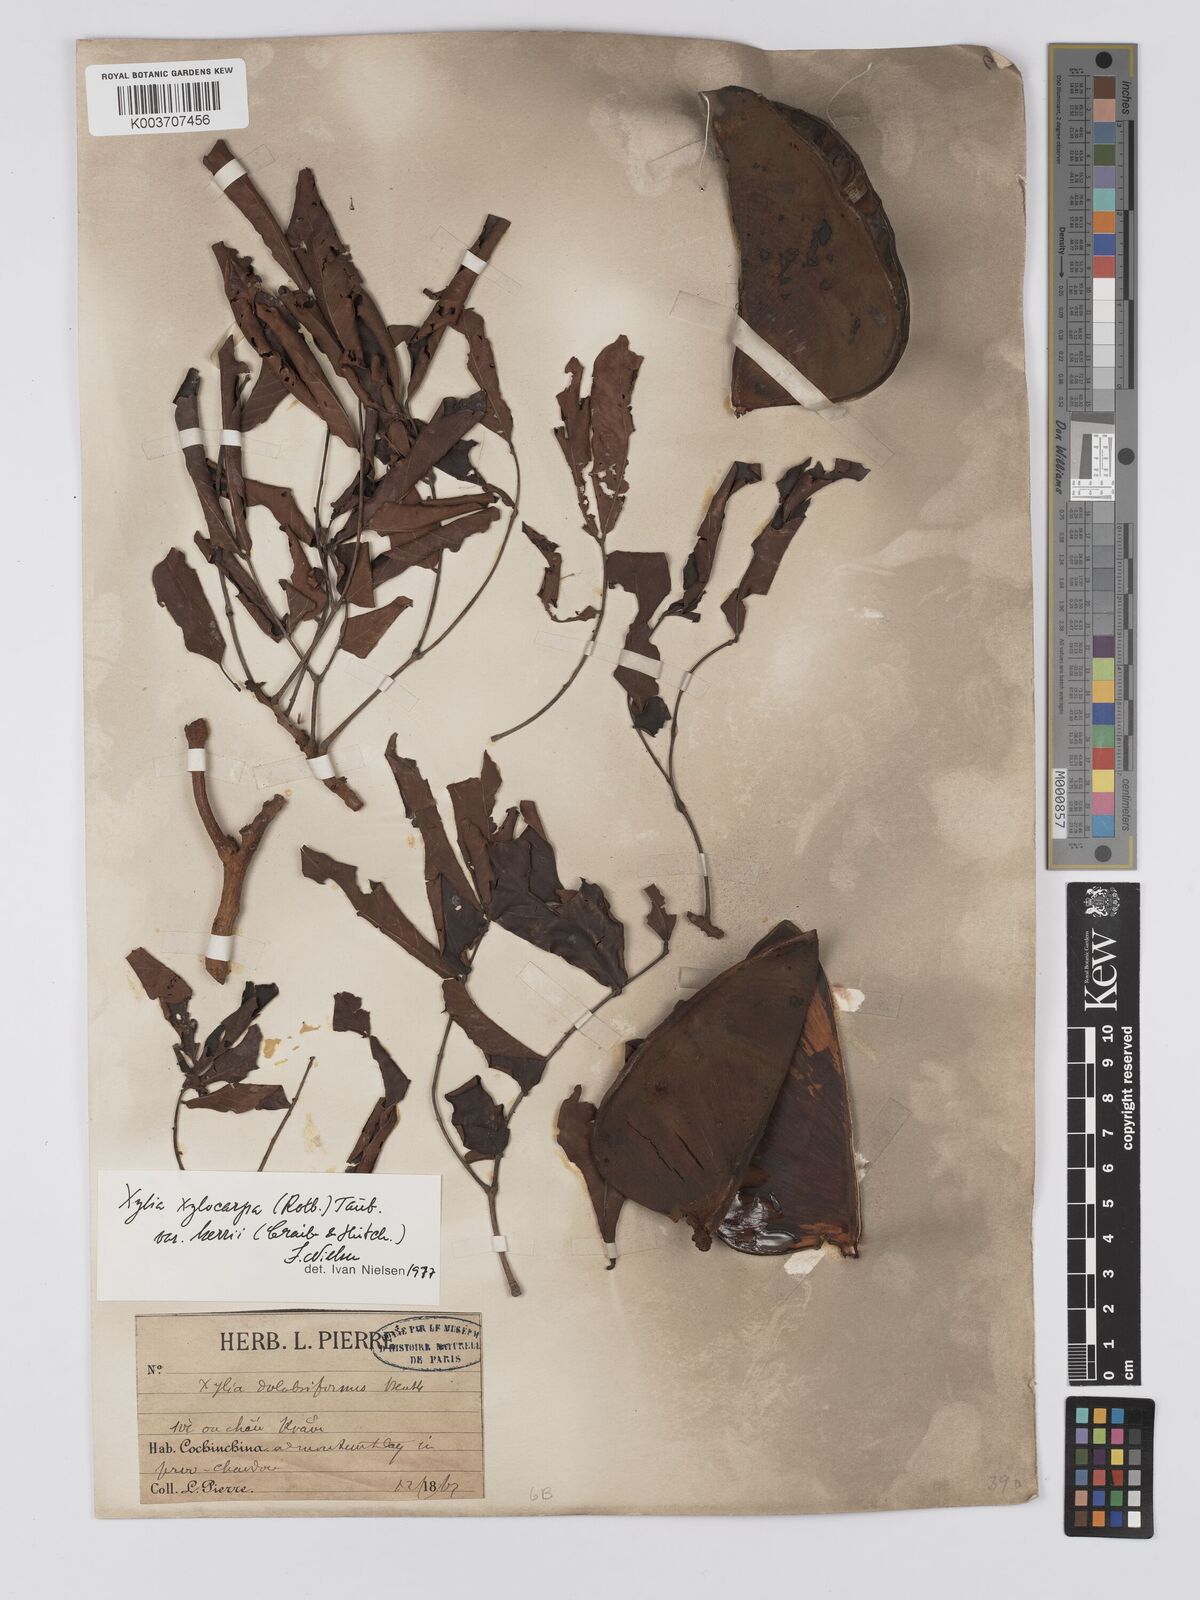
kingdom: Plantae
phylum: Tracheophyta
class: Magnoliopsida
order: Fabales
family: Fabaceae
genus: Xylia
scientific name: Xylia xylocarpa
